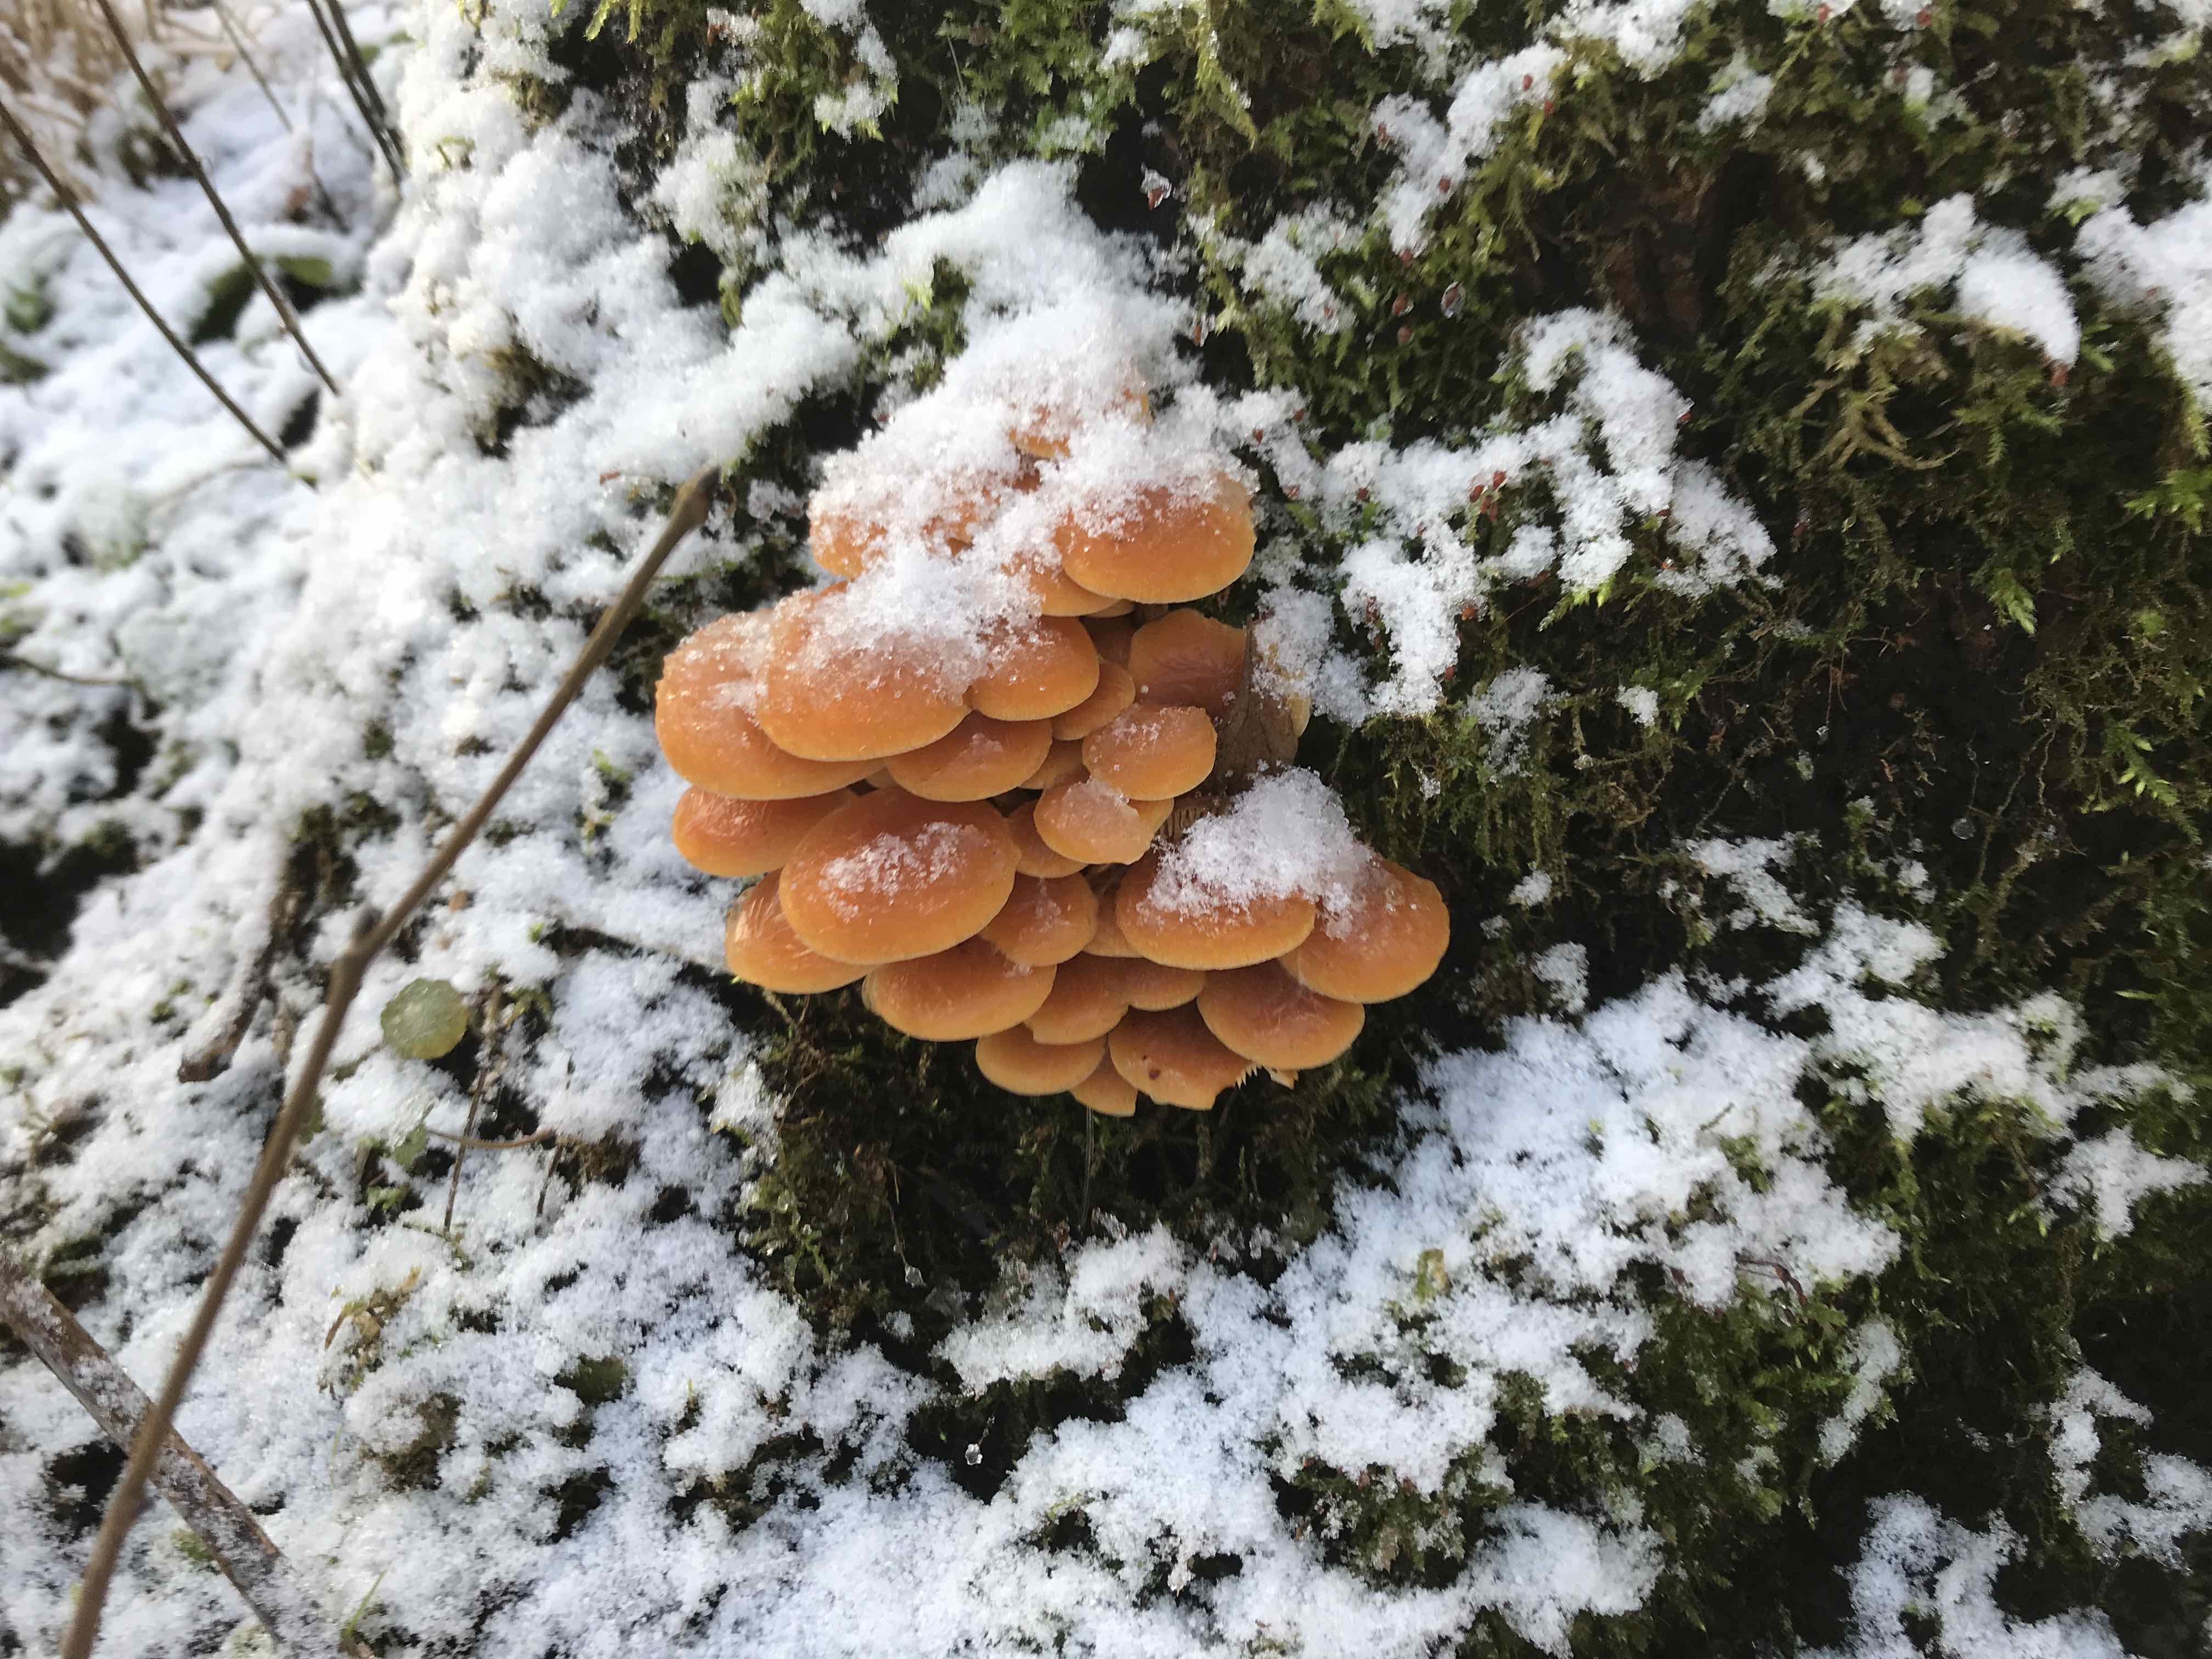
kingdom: Fungi
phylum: Basidiomycota
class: Agaricomycetes
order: Agaricales
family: Physalacriaceae
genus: Flammulina
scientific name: Flammulina velutipes
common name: gul fløjlsfod
